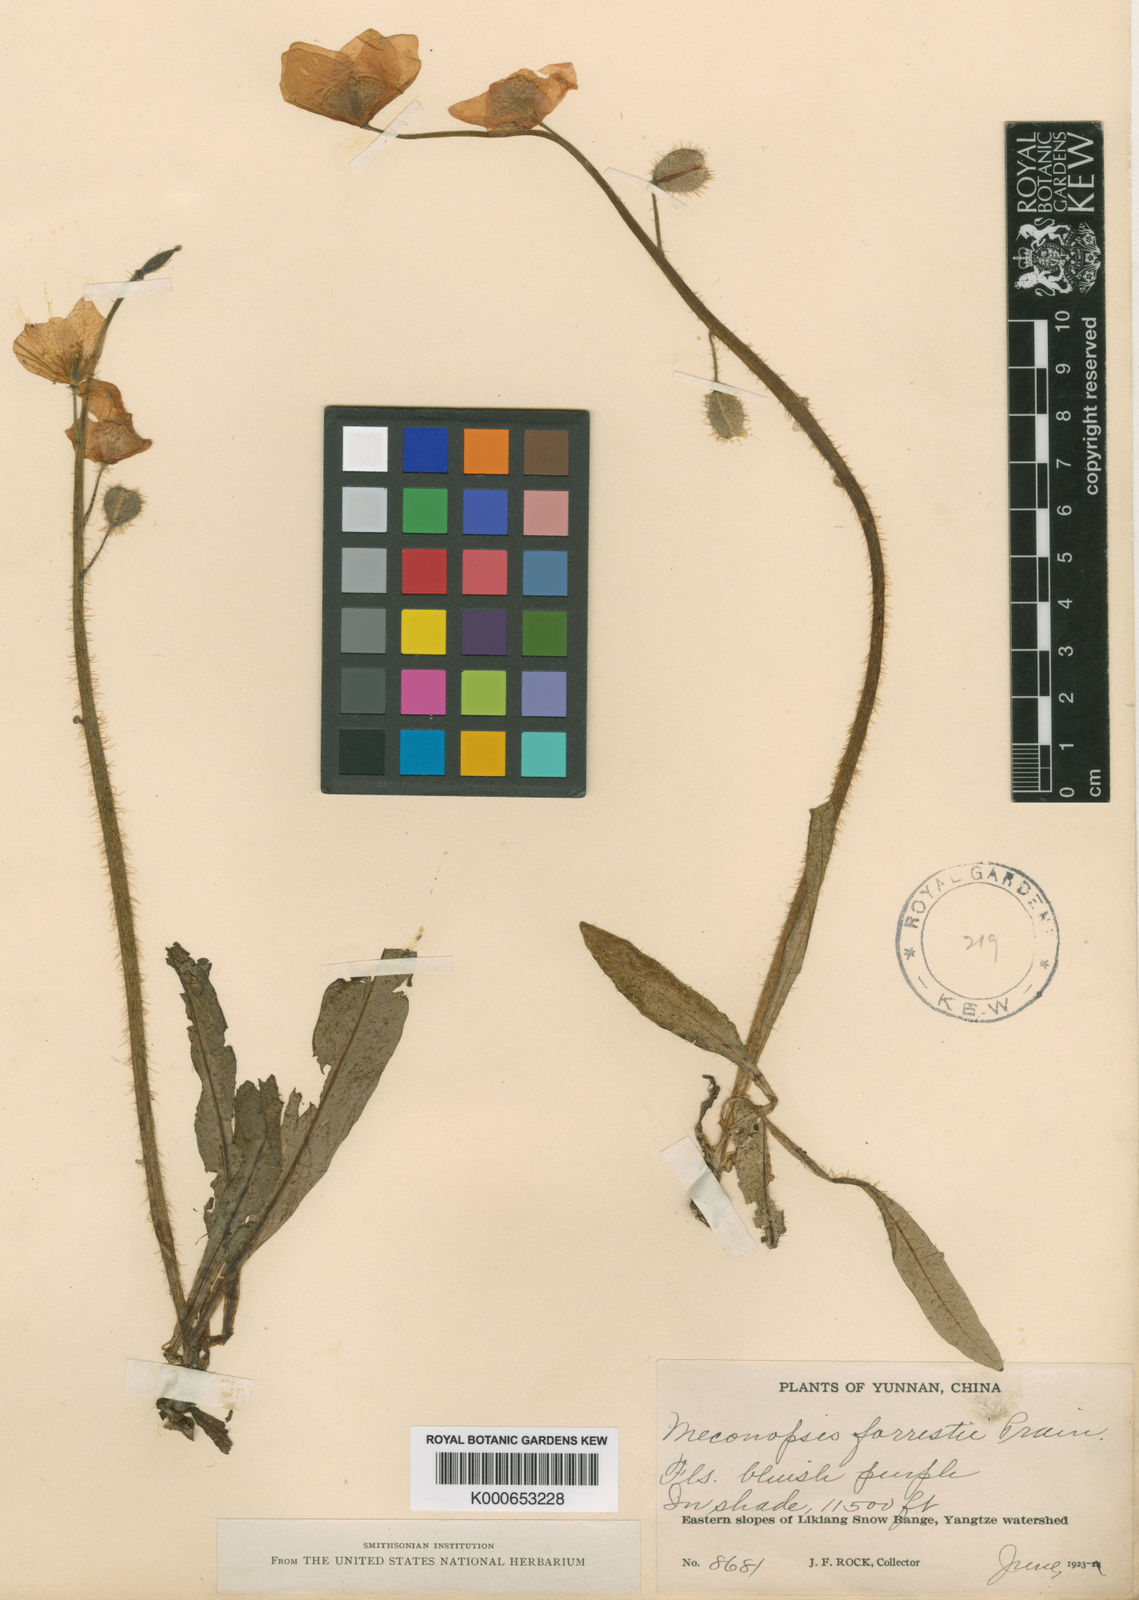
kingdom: Plantae
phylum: Tracheophyta
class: Magnoliopsida
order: Ranunculales
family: Papaveraceae
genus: Meconopsis
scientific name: Meconopsis forrestii
